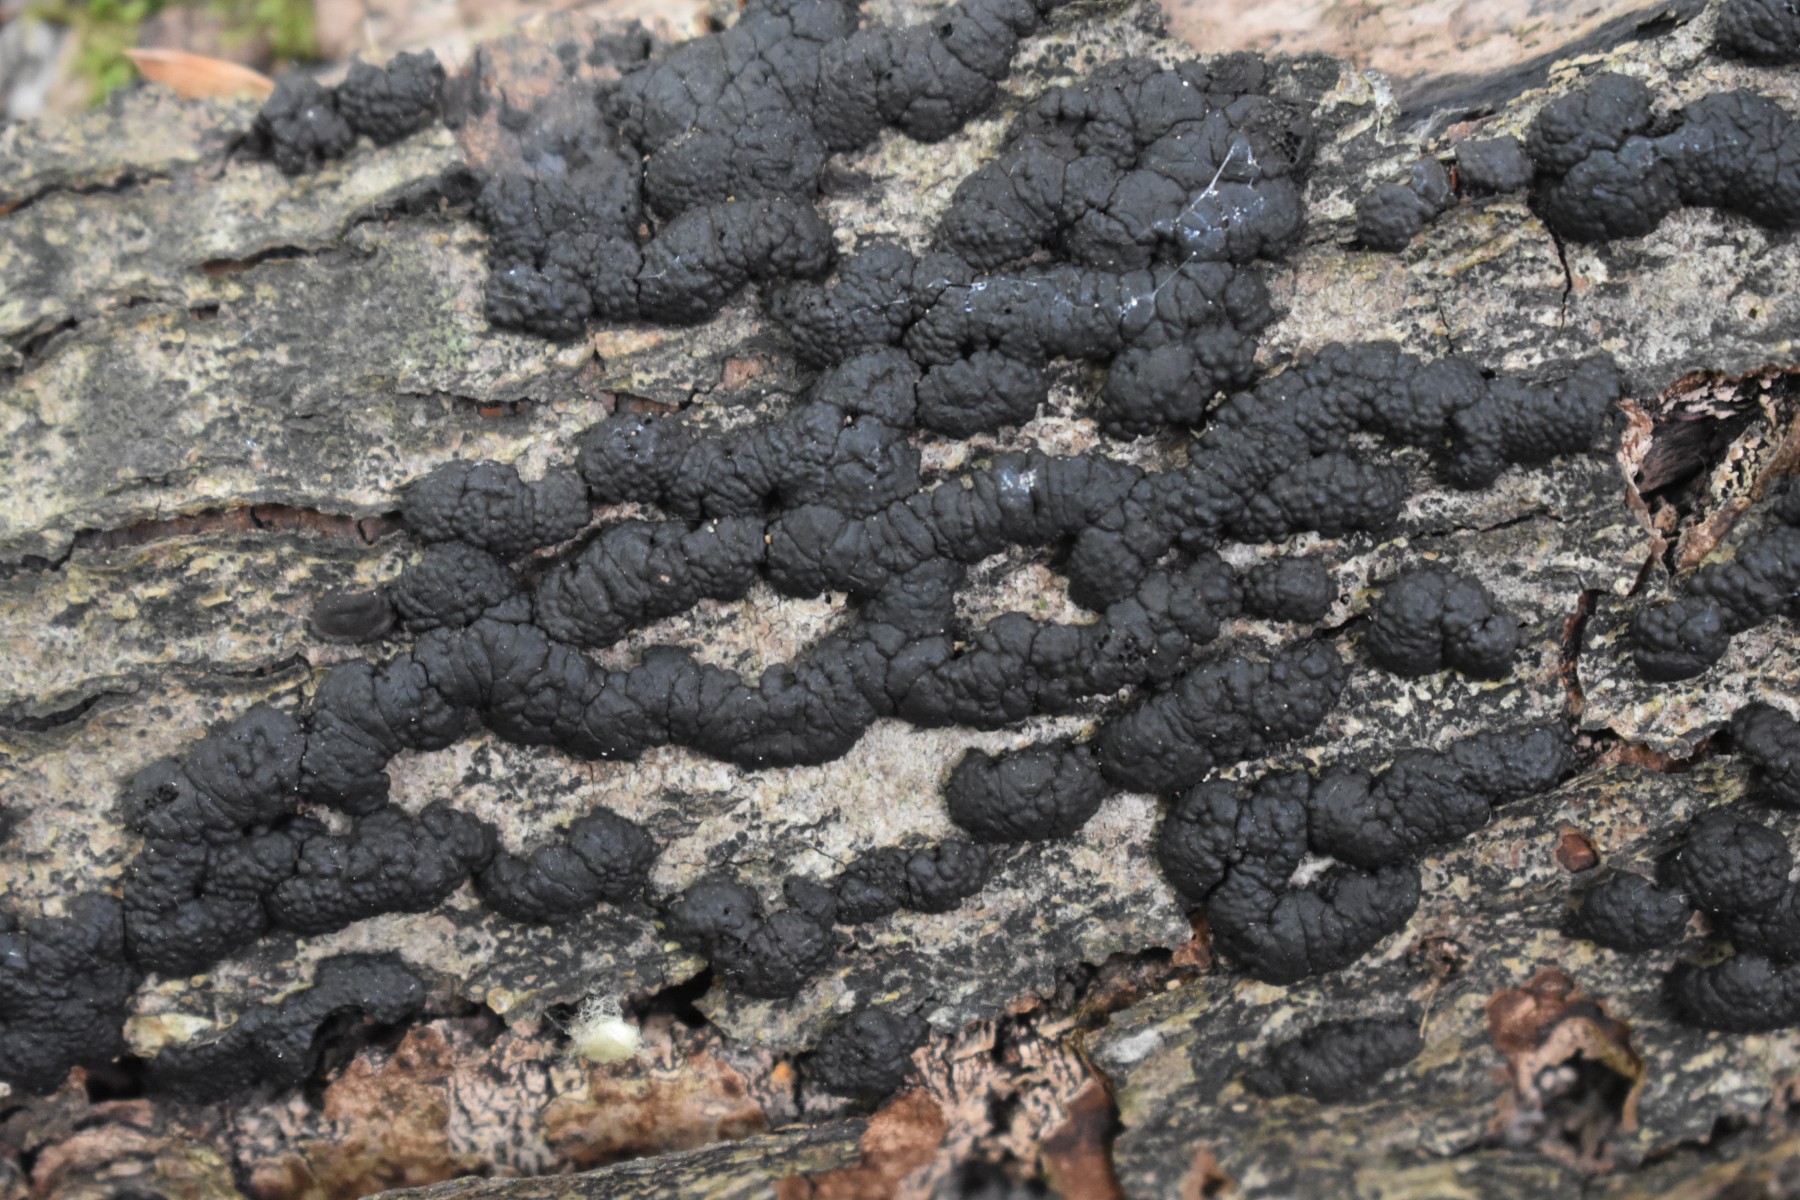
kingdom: Fungi
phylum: Ascomycota
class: Sordariomycetes
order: Xylariales
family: Hypoxylaceae
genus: Jackrogersella
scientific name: Jackrogersella cohaerens
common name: sammenflydende kulbær
